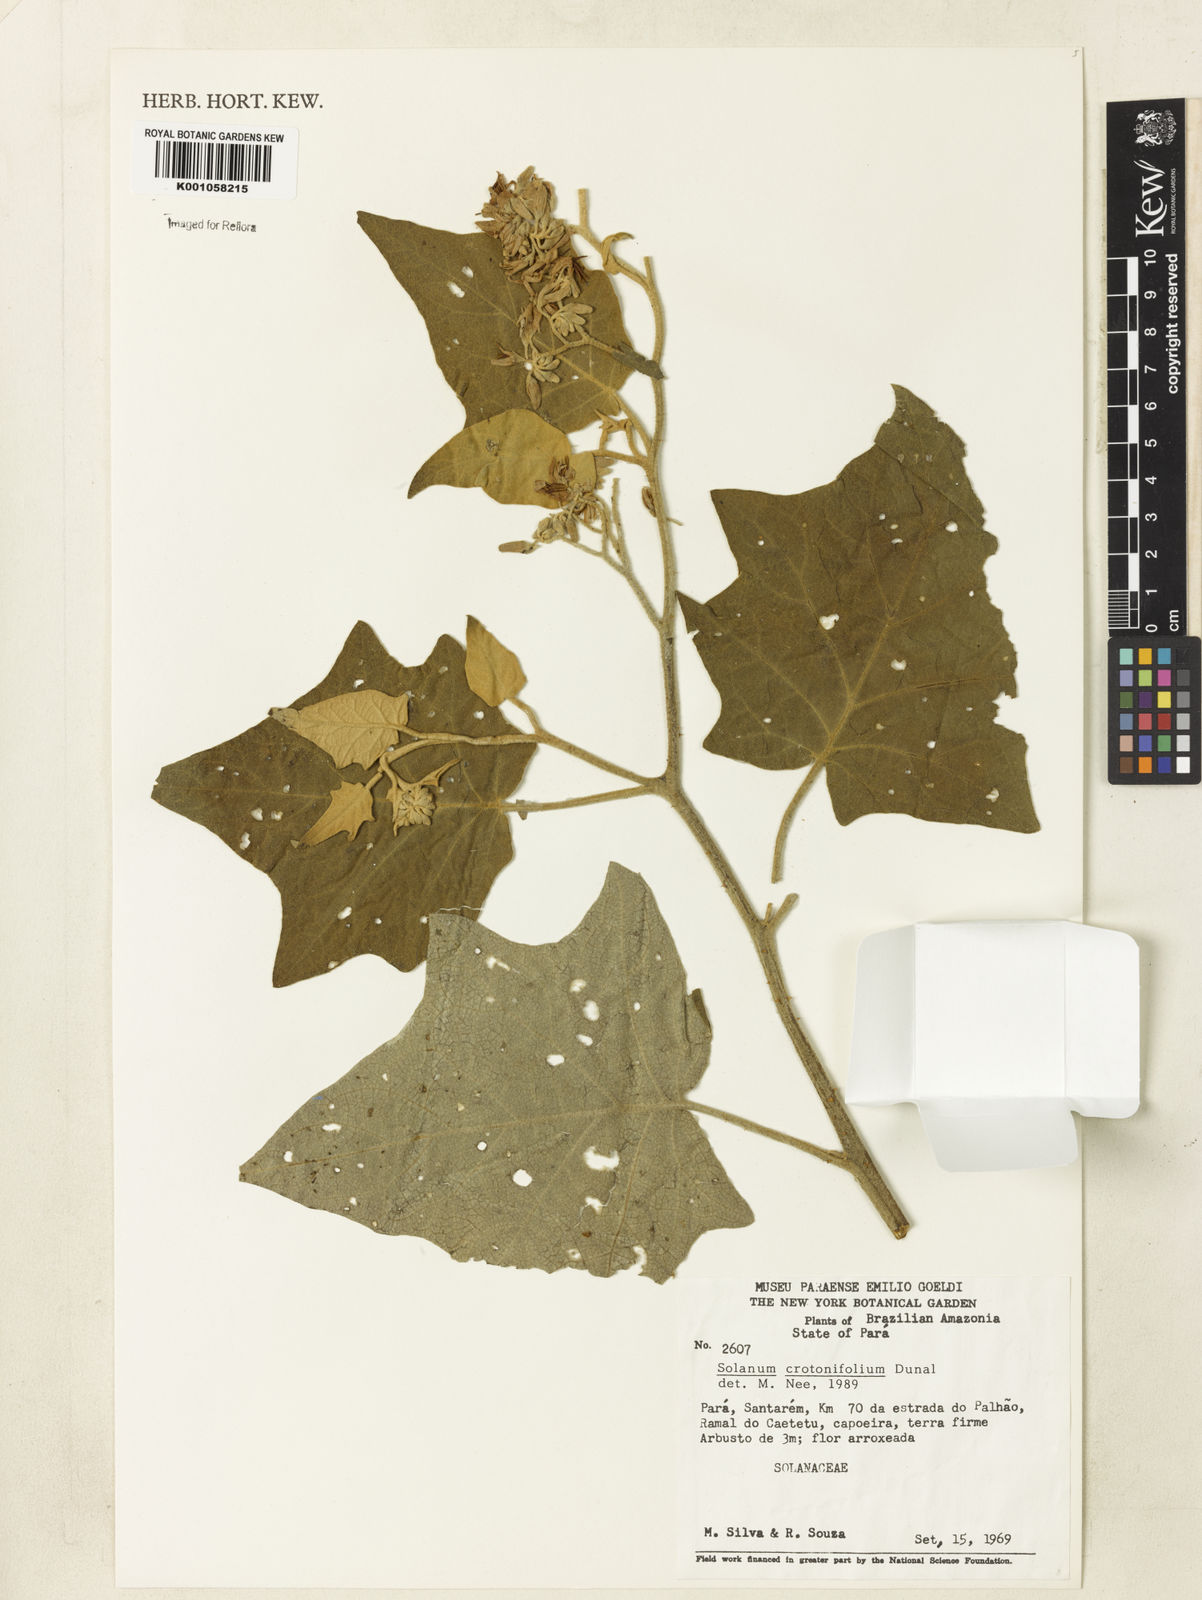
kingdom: Plantae
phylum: Tracheophyta
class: Magnoliopsida
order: Solanales
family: Solanaceae
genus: Solanum
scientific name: Solanum acutilobum
